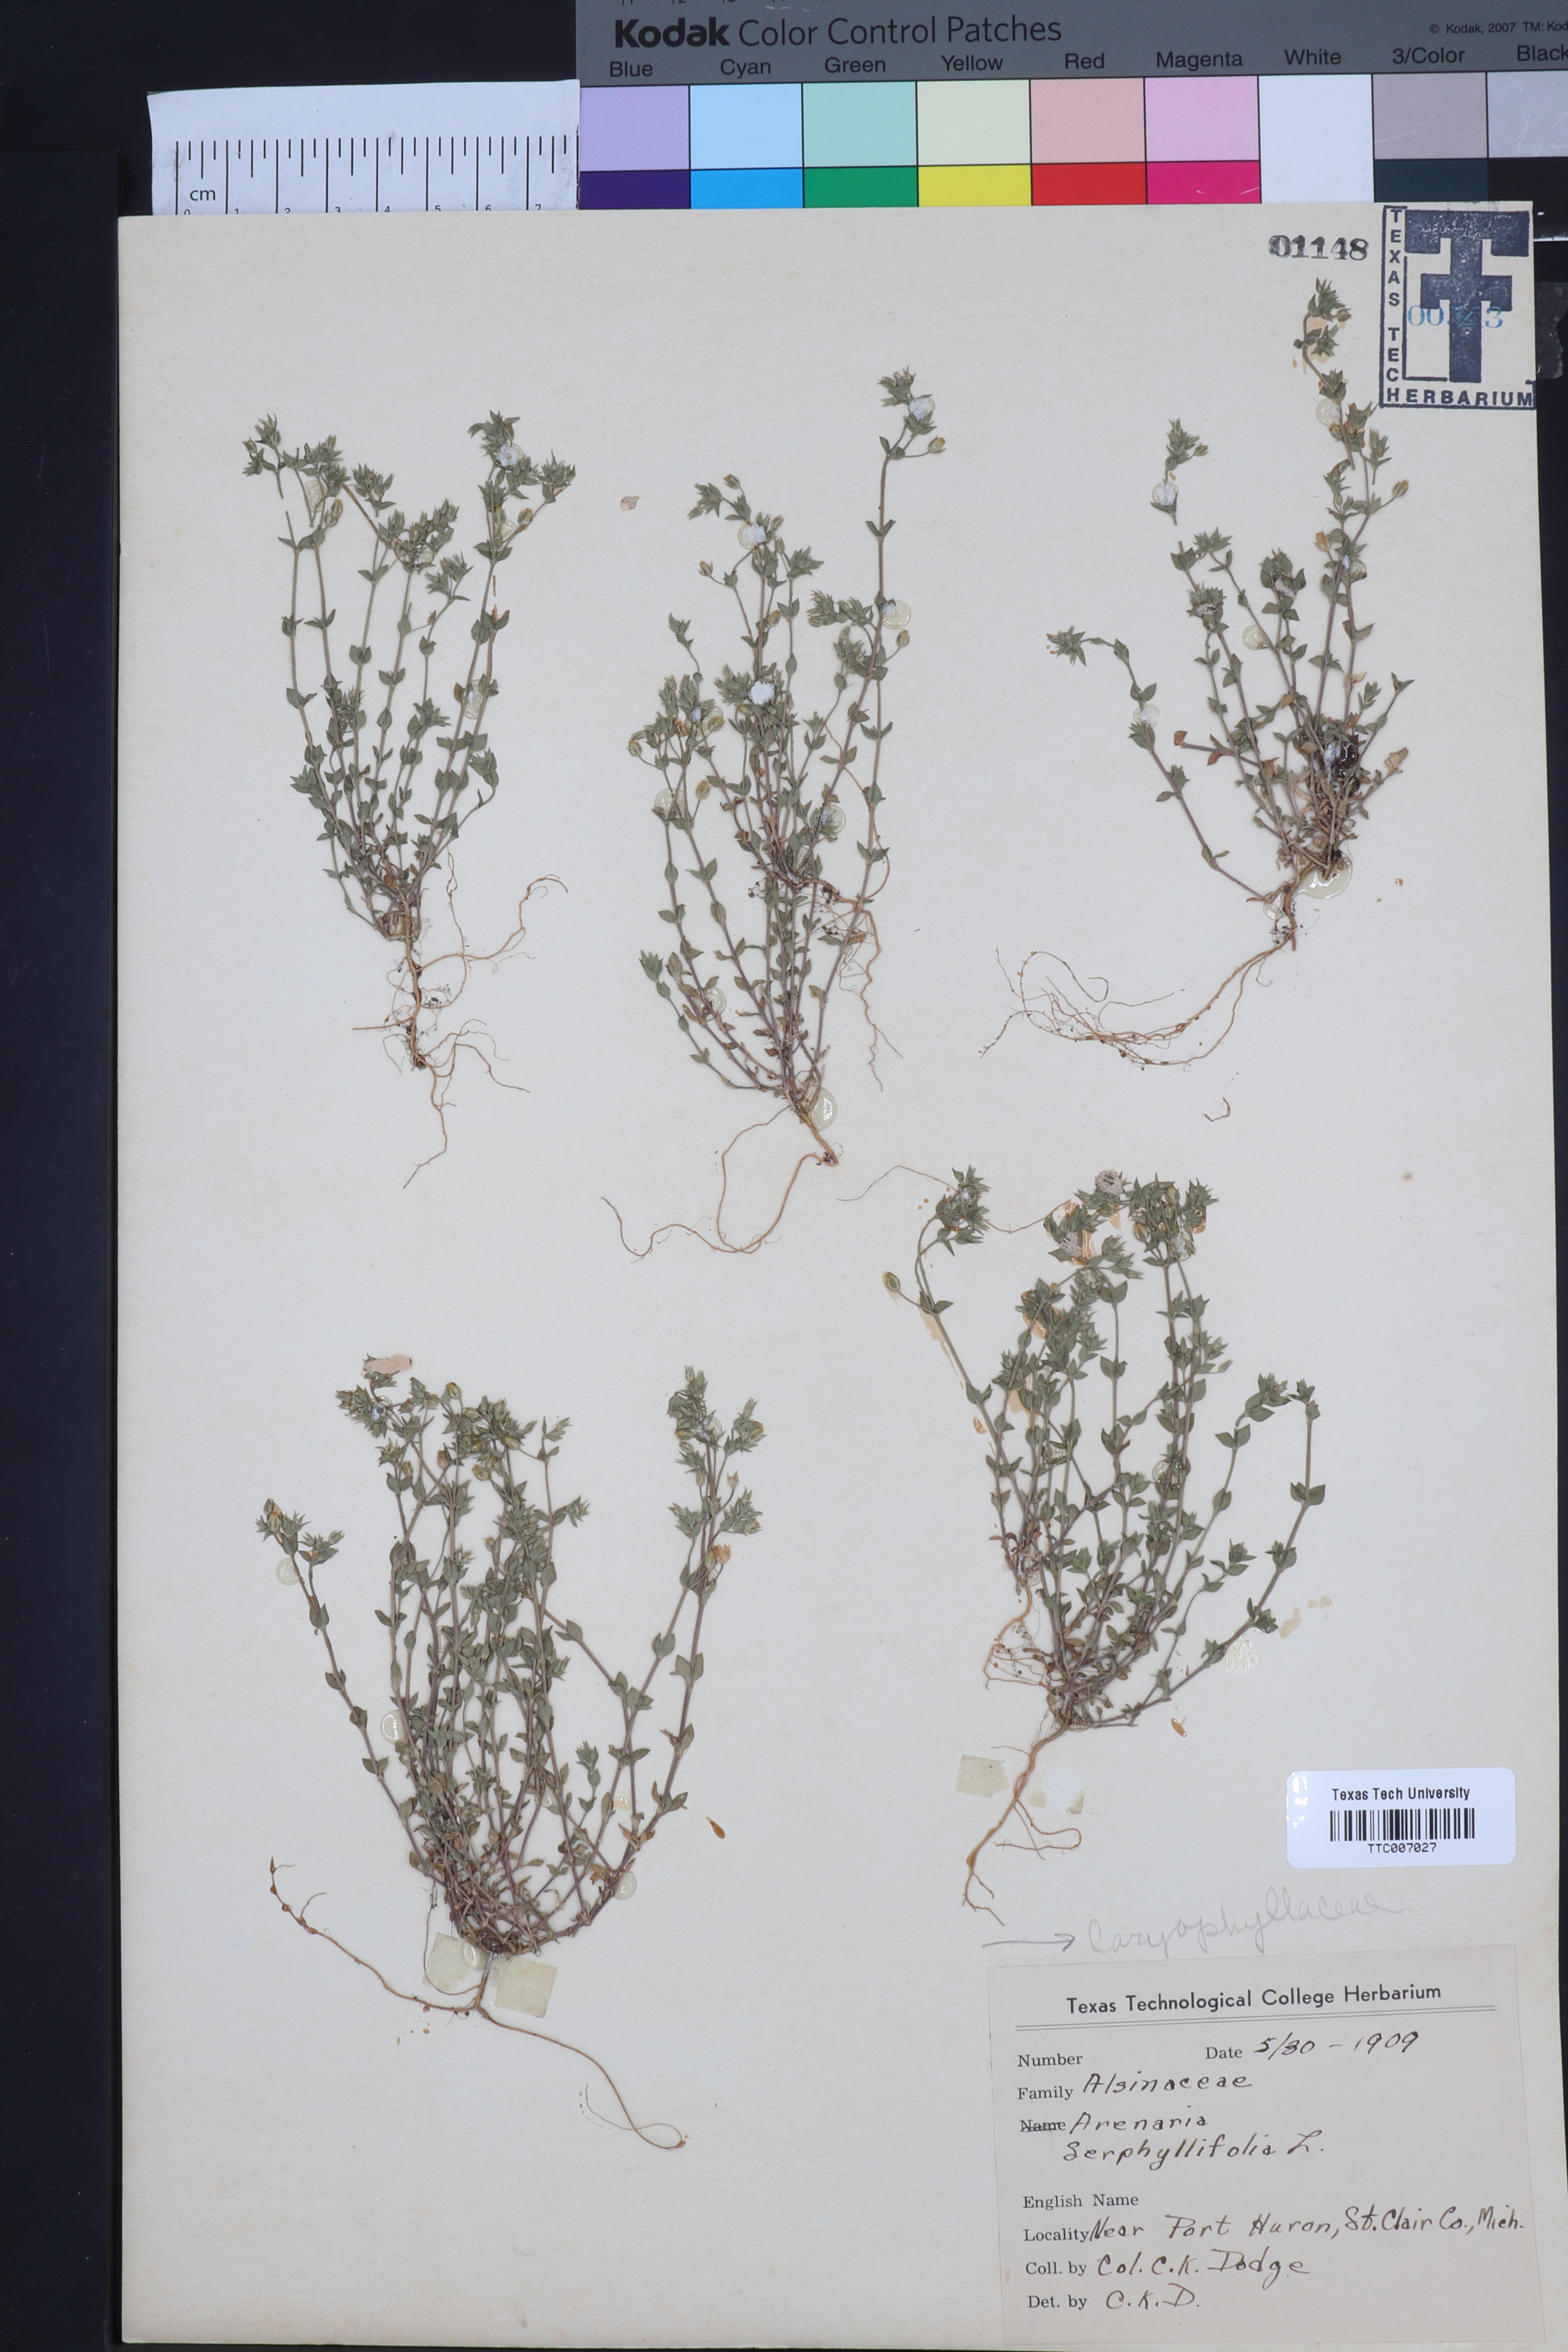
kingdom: Plantae
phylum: Tracheophyta
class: Magnoliopsida
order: Caryophyllales
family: Caryophyllaceae
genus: Arenaria
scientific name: Arenaria serpyllifolia
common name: Thyme-leaved sandwort
